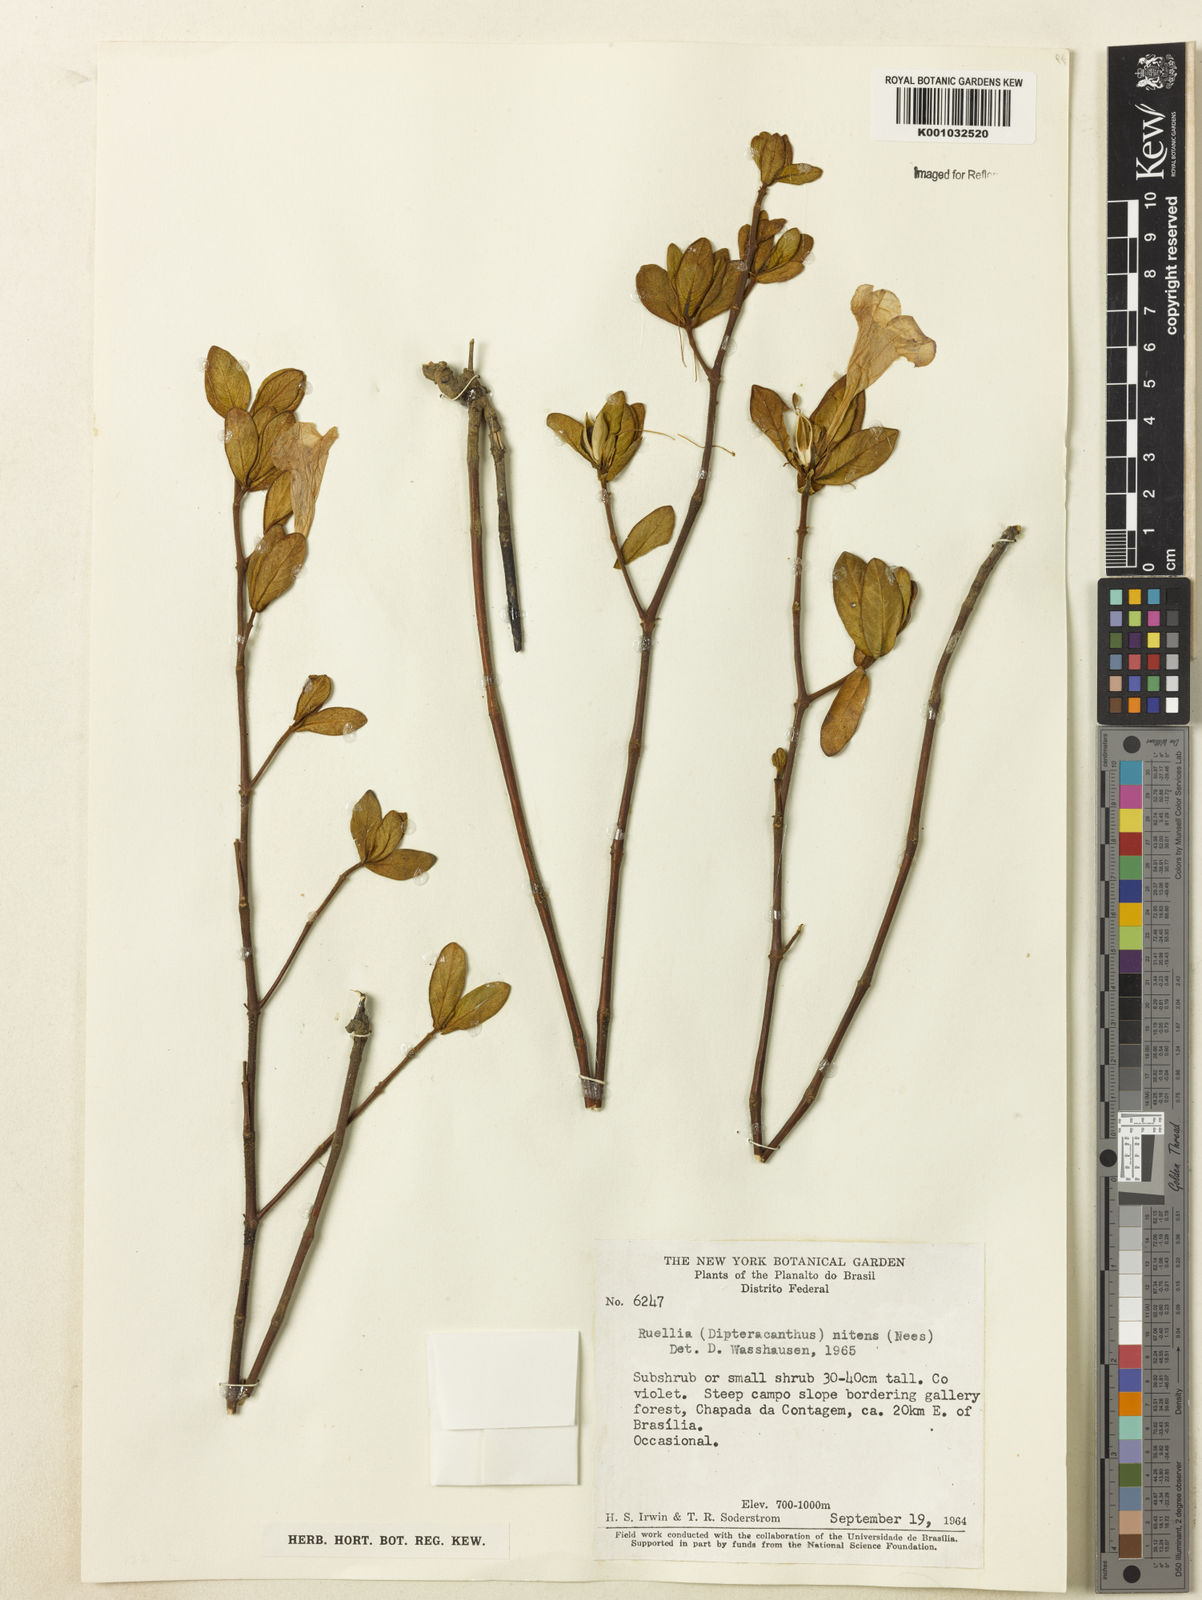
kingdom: Plantae
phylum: Tracheophyta
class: Magnoliopsida
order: Lamiales
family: Acanthaceae
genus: Ruellia
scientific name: Ruellia nitens
